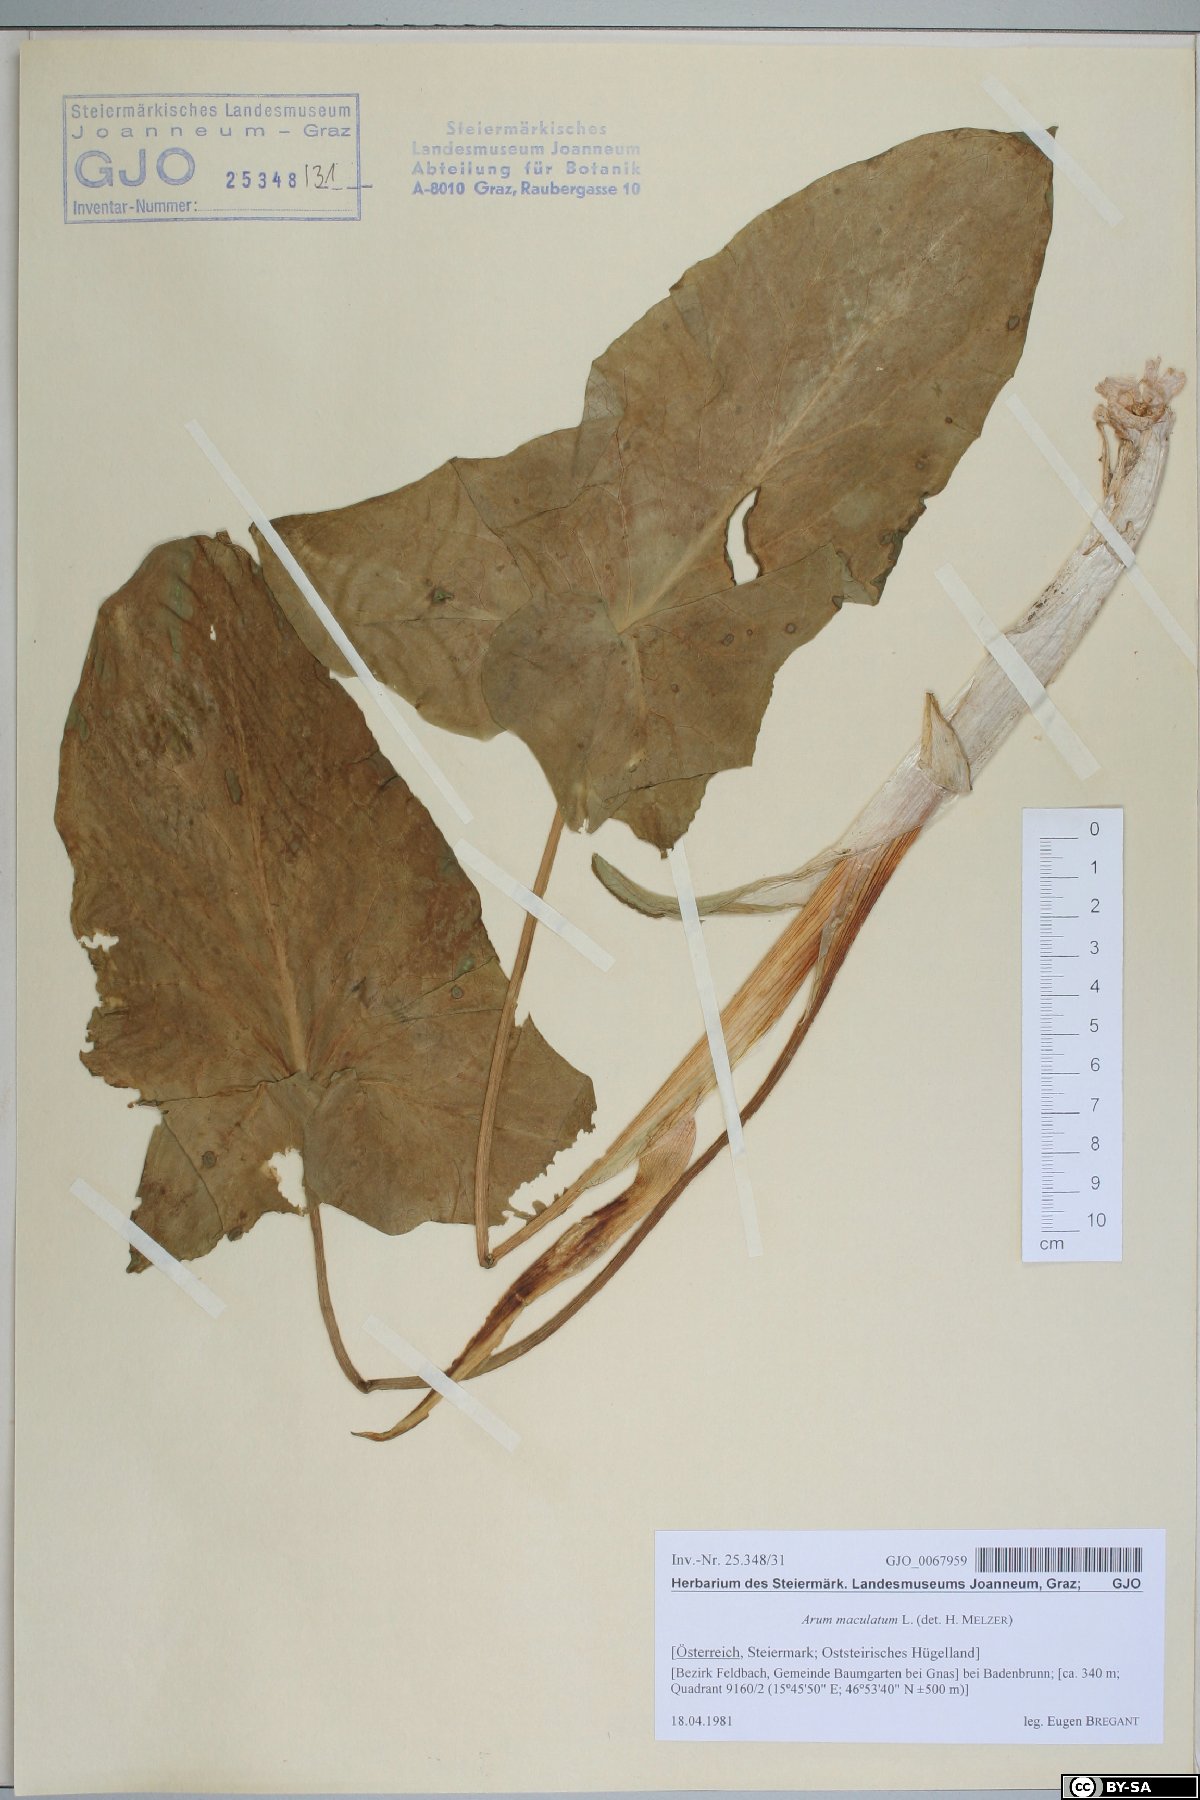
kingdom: Plantae
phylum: Tracheophyta
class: Liliopsida
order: Alismatales
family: Araceae
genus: Arum
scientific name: Arum maculatum
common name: Lords-and-ladies
